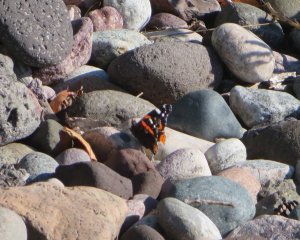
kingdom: Animalia
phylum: Arthropoda
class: Insecta
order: Lepidoptera
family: Nymphalidae
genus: Vanessa
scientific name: Vanessa atalanta
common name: Red Admiral
